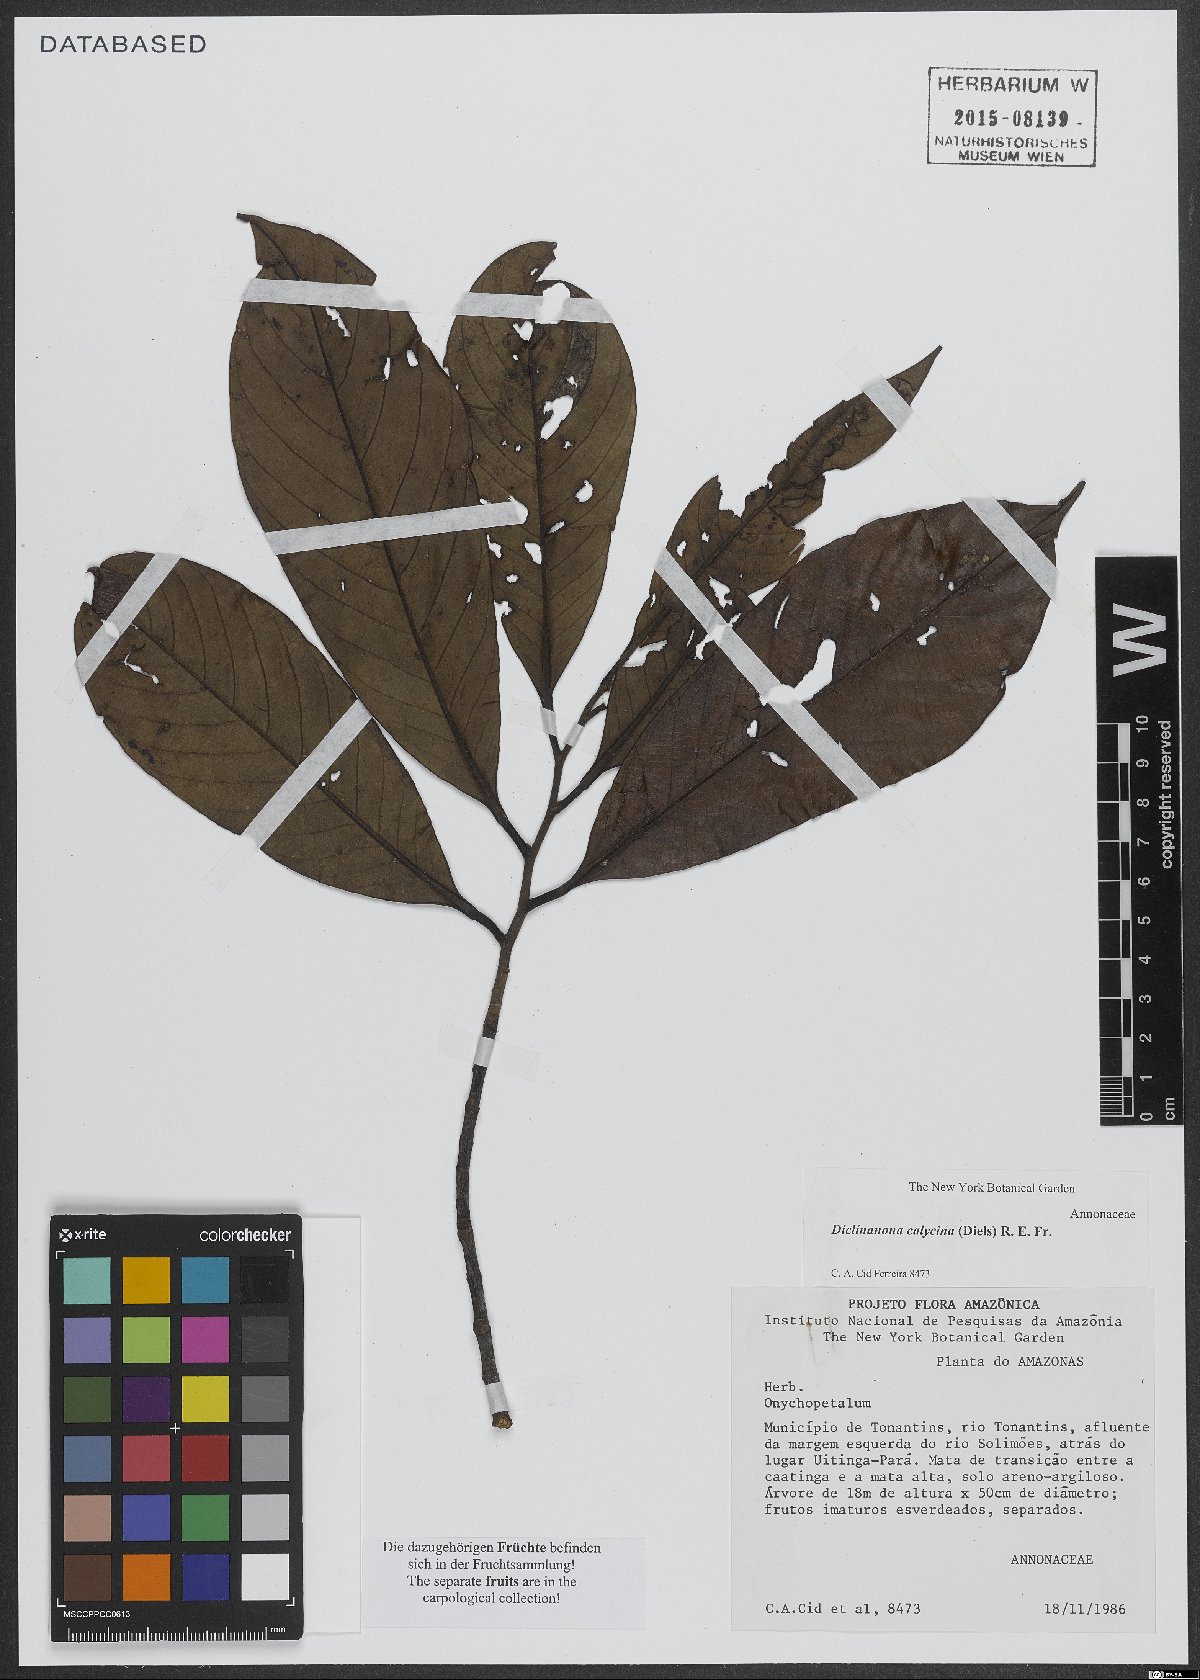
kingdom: Plantae
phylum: Tracheophyta
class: Magnoliopsida
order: Magnoliales
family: Annonaceae
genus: Diclinanona
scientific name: Diclinanona calycina
